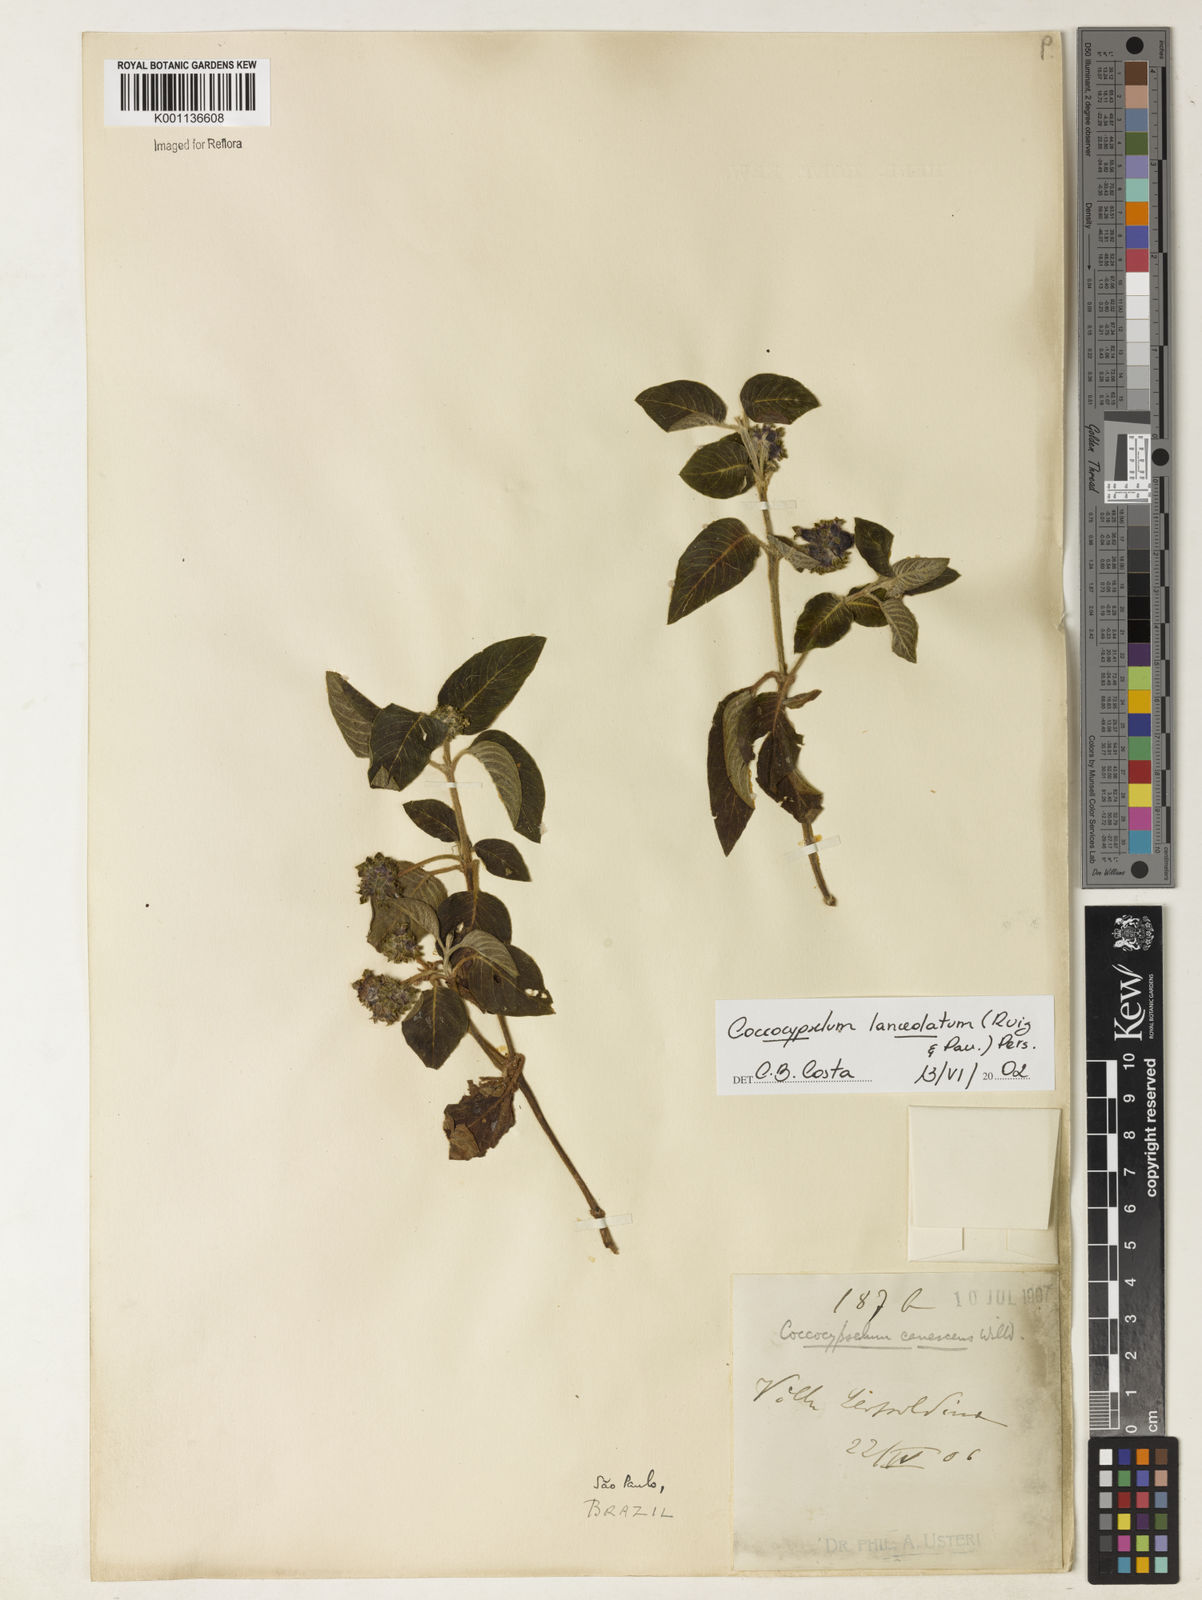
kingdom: Plantae
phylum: Tracheophyta
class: Magnoliopsida
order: Gentianales
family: Rubiaceae
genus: Coccocypselum
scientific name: Coccocypselum lanceolatum
